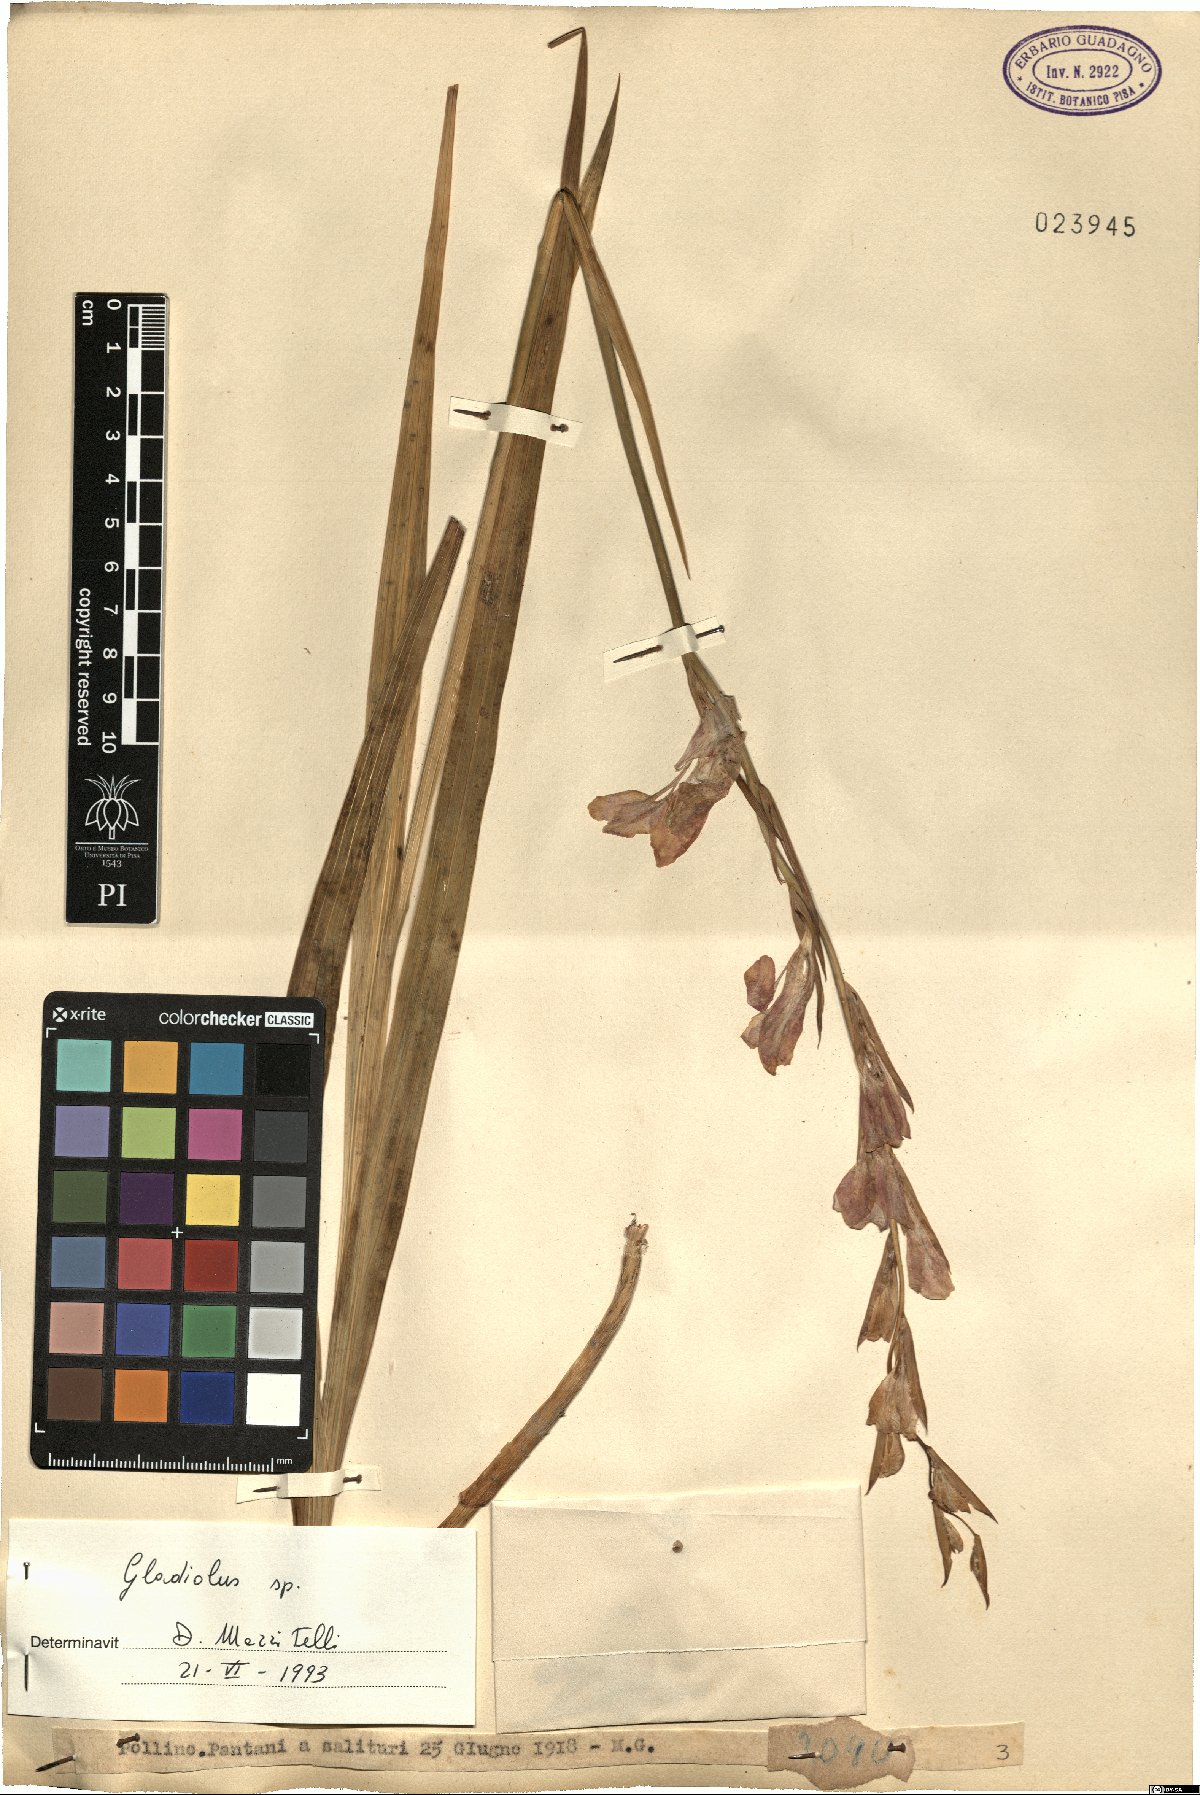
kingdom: Plantae
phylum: Tracheophyta
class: Liliopsida
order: Asparagales
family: Iridaceae
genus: Gladiolus
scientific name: Gladiolus
